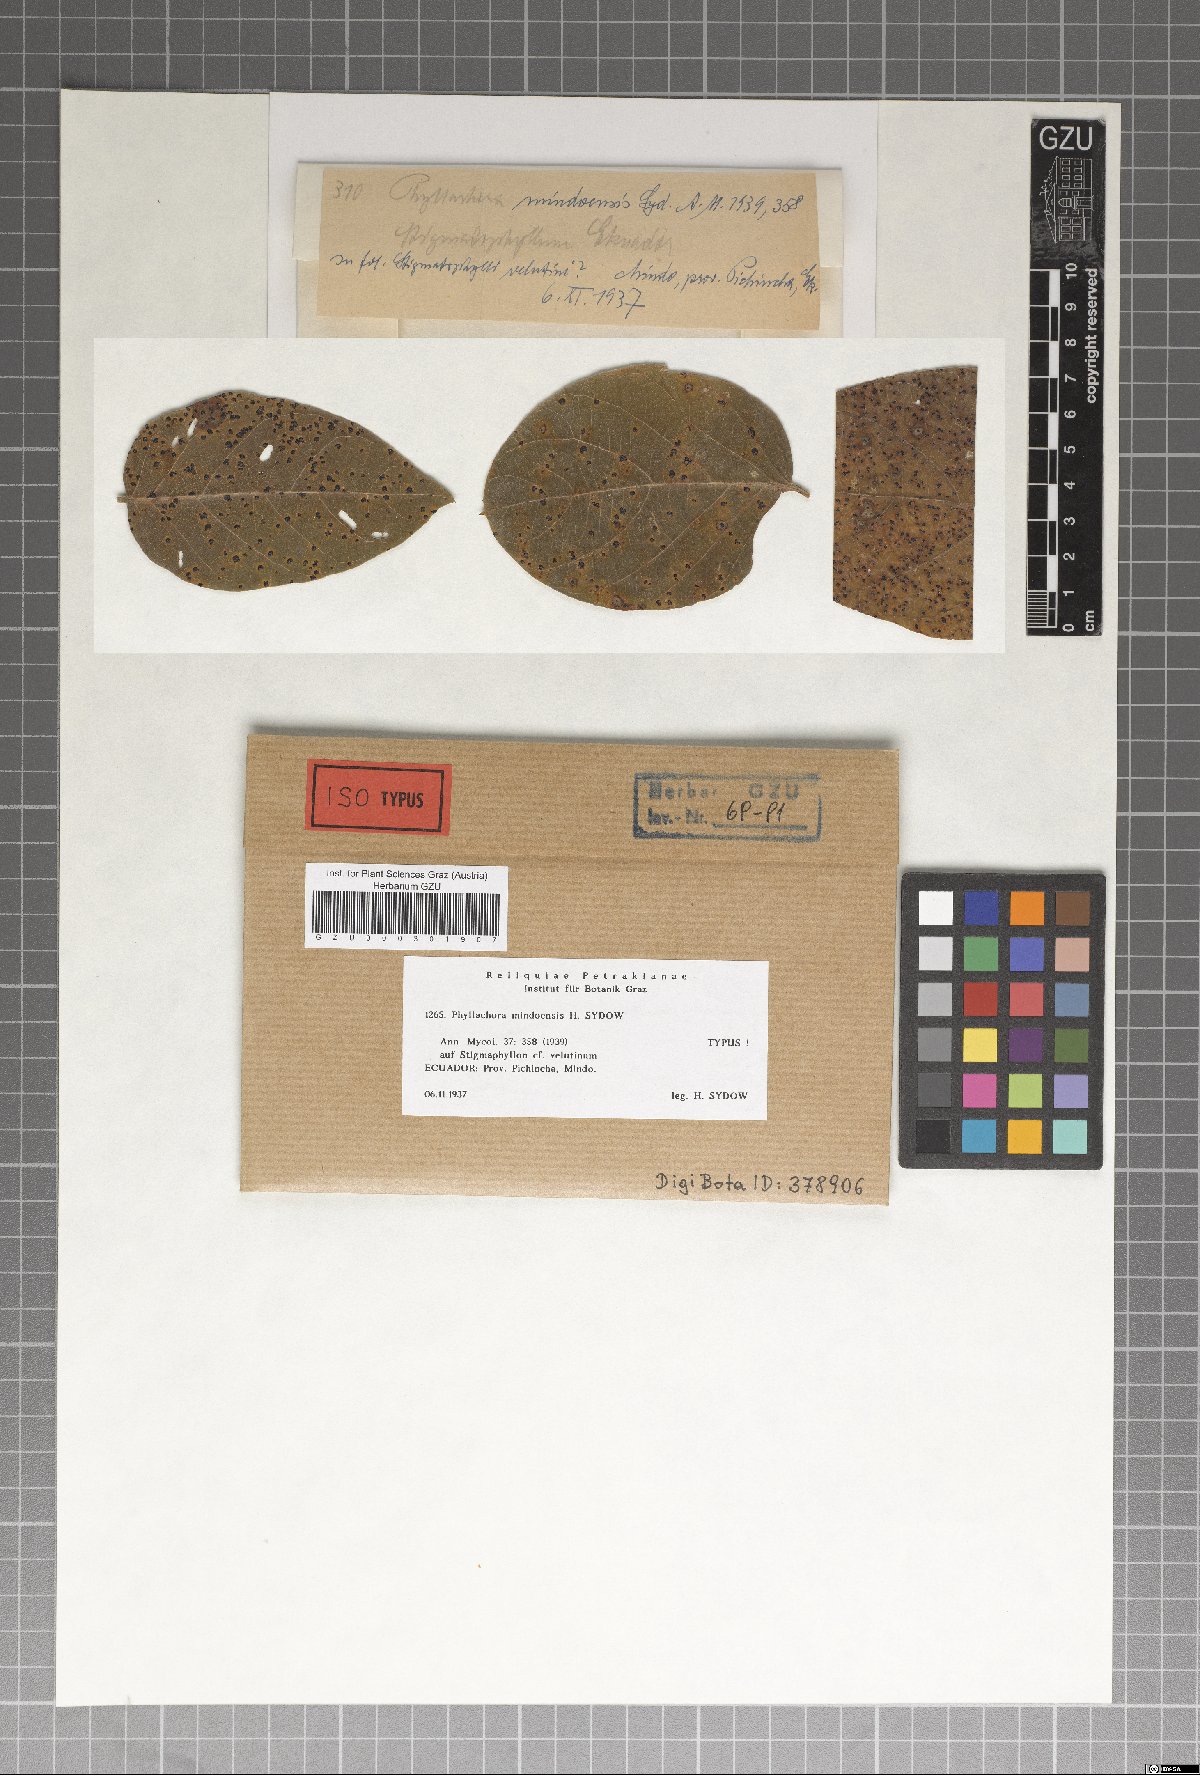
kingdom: Fungi
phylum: Ascomycota
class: Sordariomycetes
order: Phyllachorales
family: Phyllachoraceae
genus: Phyllachora
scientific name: Phyllachora mindoensis
